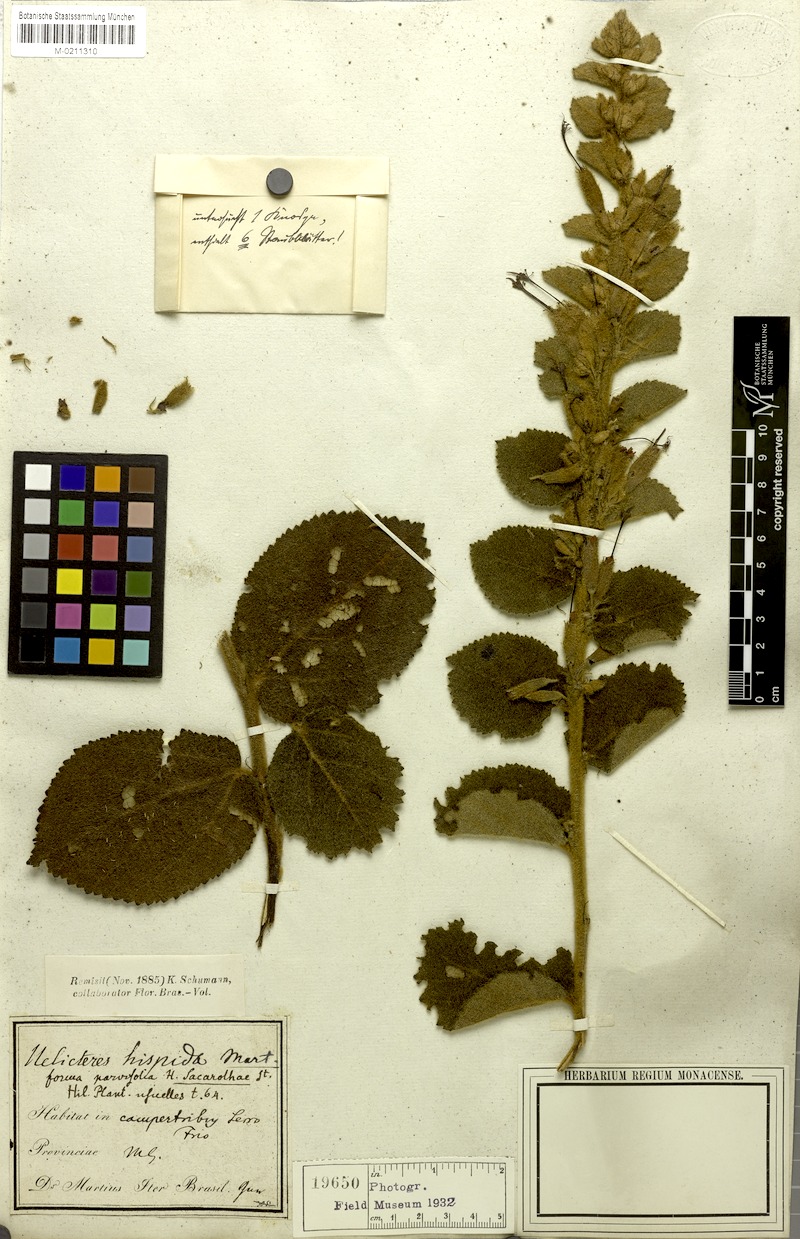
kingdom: Plantae
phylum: Tracheophyta
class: Magnoliopsida
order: Malvales
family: Malvaceae
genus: Helicteres
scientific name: Helicteres sacarolha
